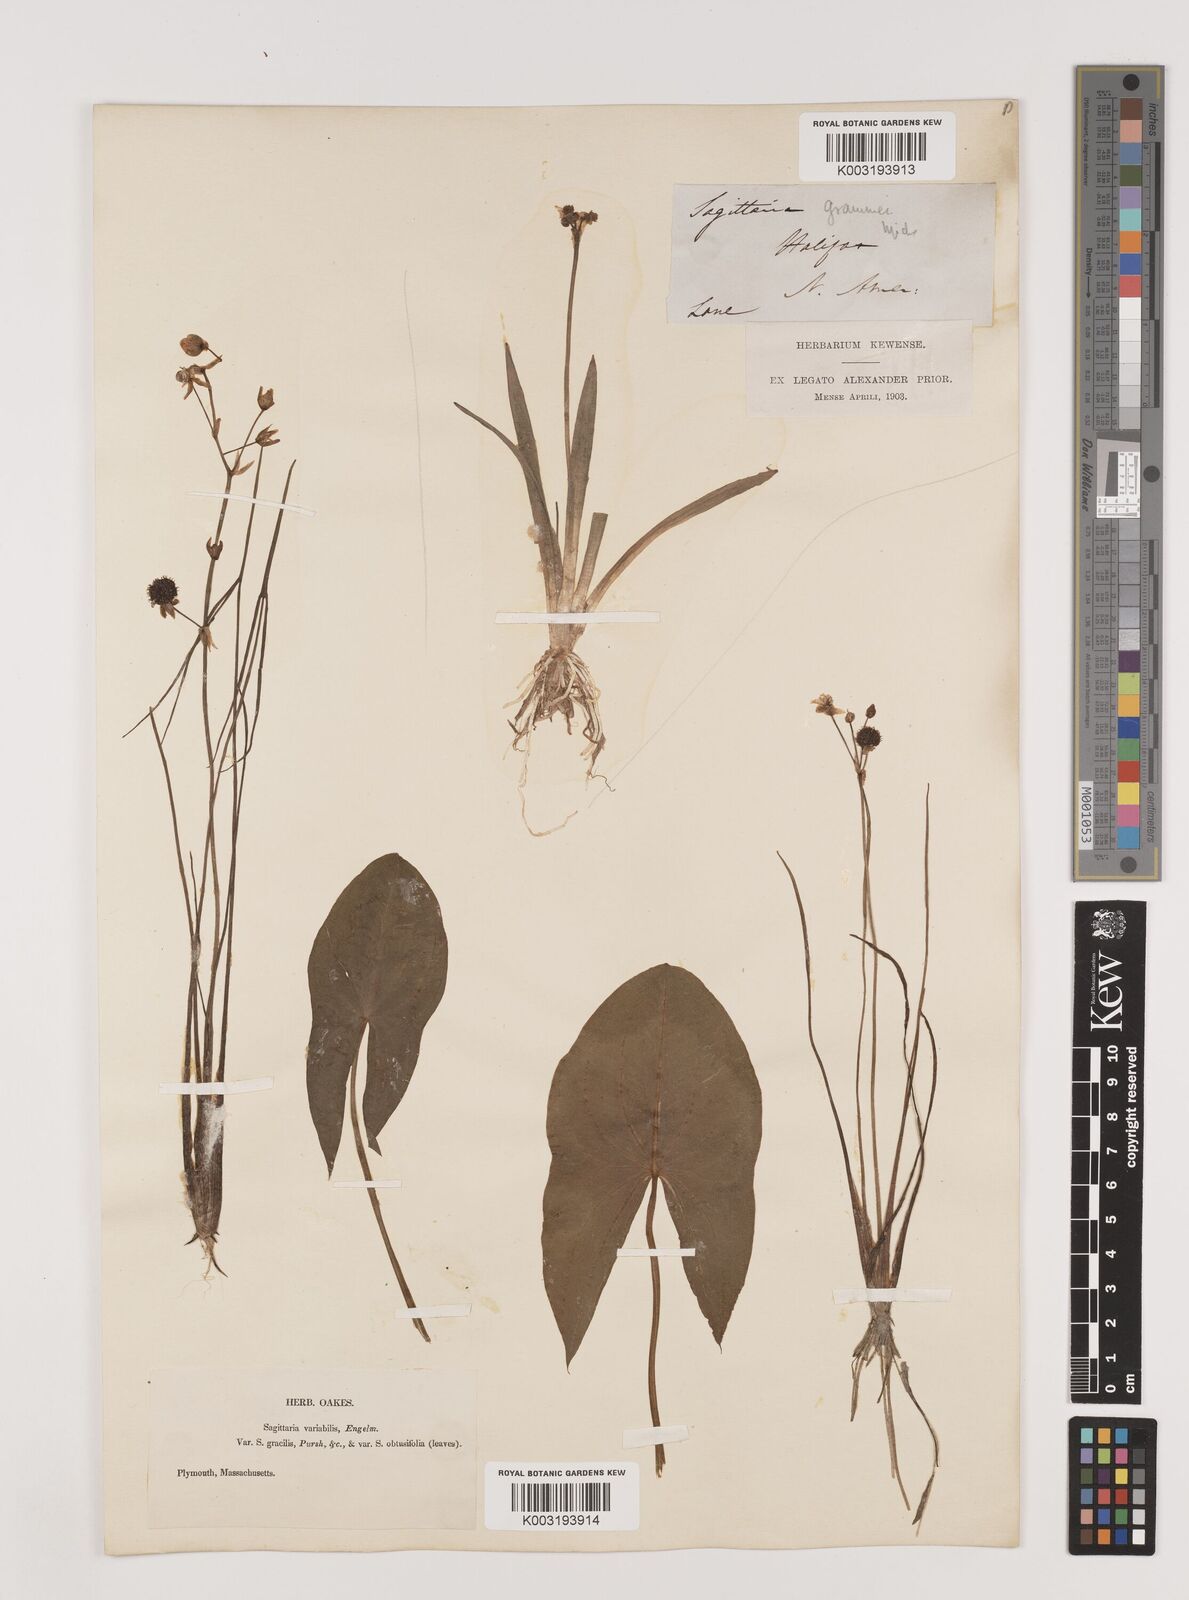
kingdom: Plantae
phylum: Tracheophyta
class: Liliopsida
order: Alismatales
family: Alismataceae
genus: Sagittaria
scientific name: Sagittaria latifolia
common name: Duck-potato
